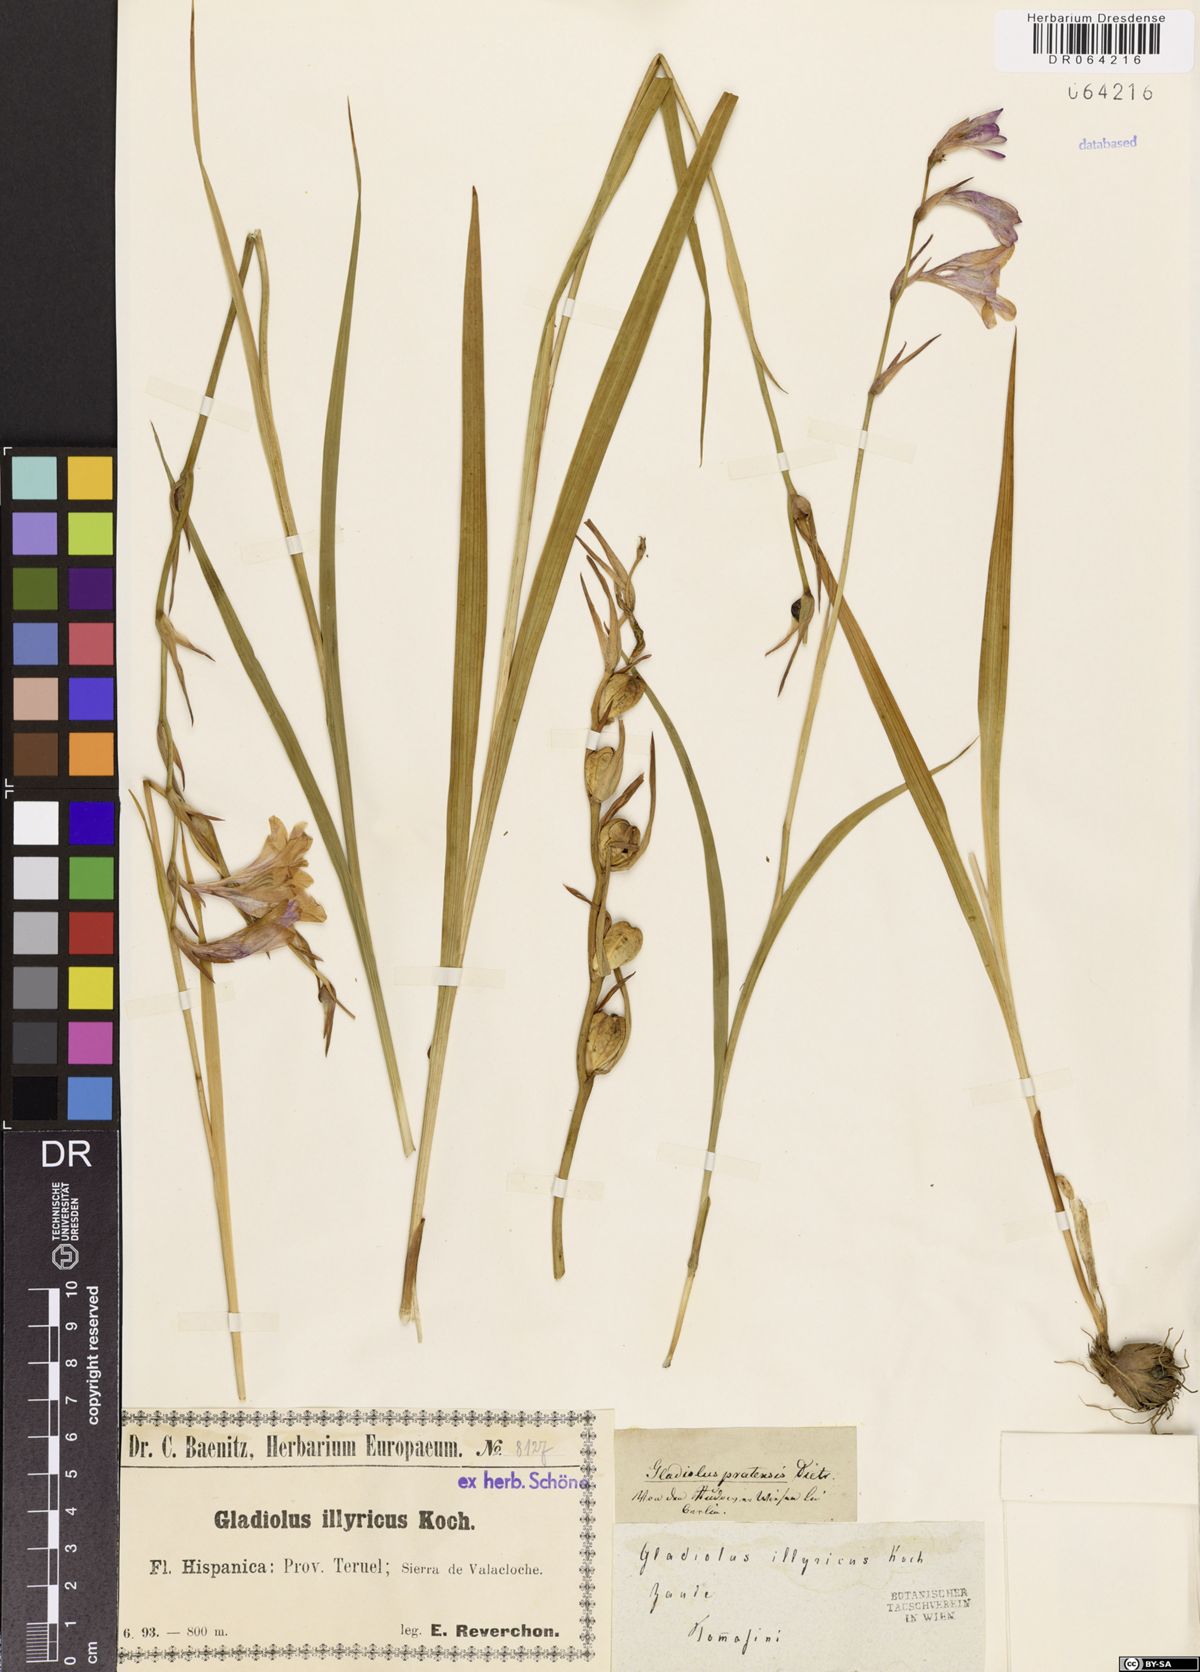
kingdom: Plantae
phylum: Tracheophyta
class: Liliopsida
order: Asparagales
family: Iridaceae
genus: Gladiolus
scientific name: Gladiolus illyricus
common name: Wild gladiolus
